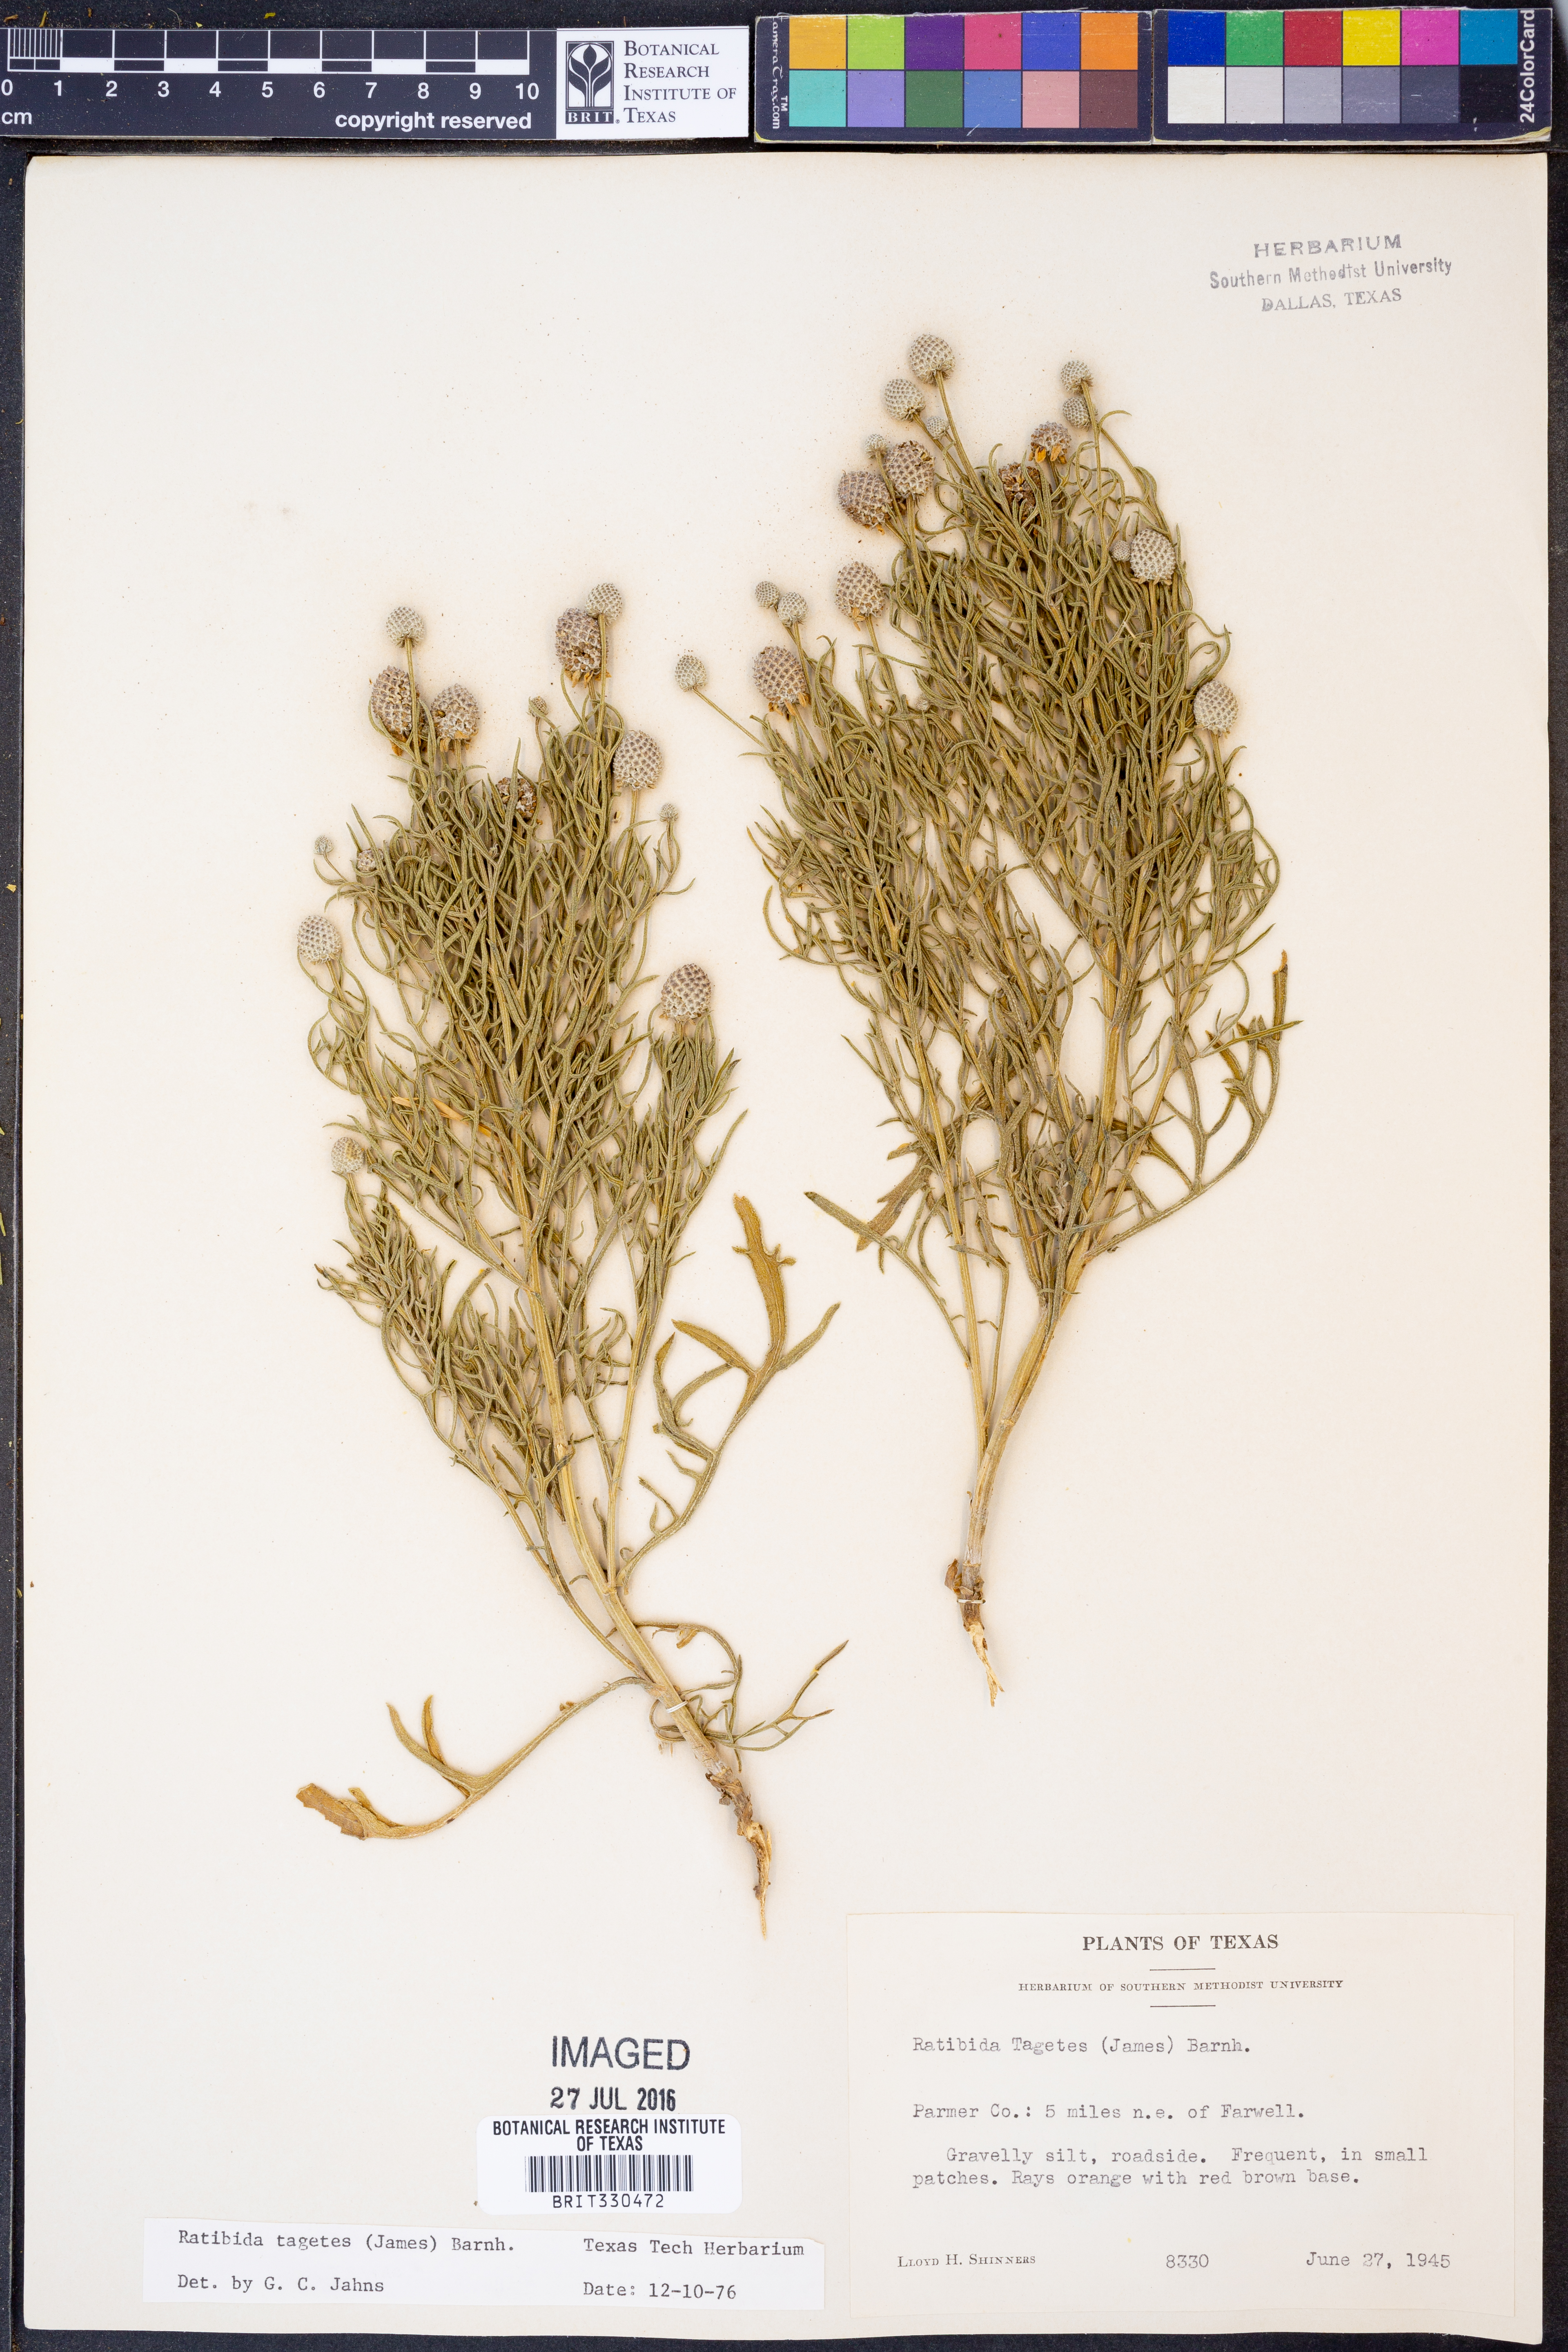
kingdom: Plantae
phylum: Tracheophyta
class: Magnoliopsida
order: Asterales
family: Asteraceae
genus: Ratibida
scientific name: Ratibida tagetes
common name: Green mexican-hat
